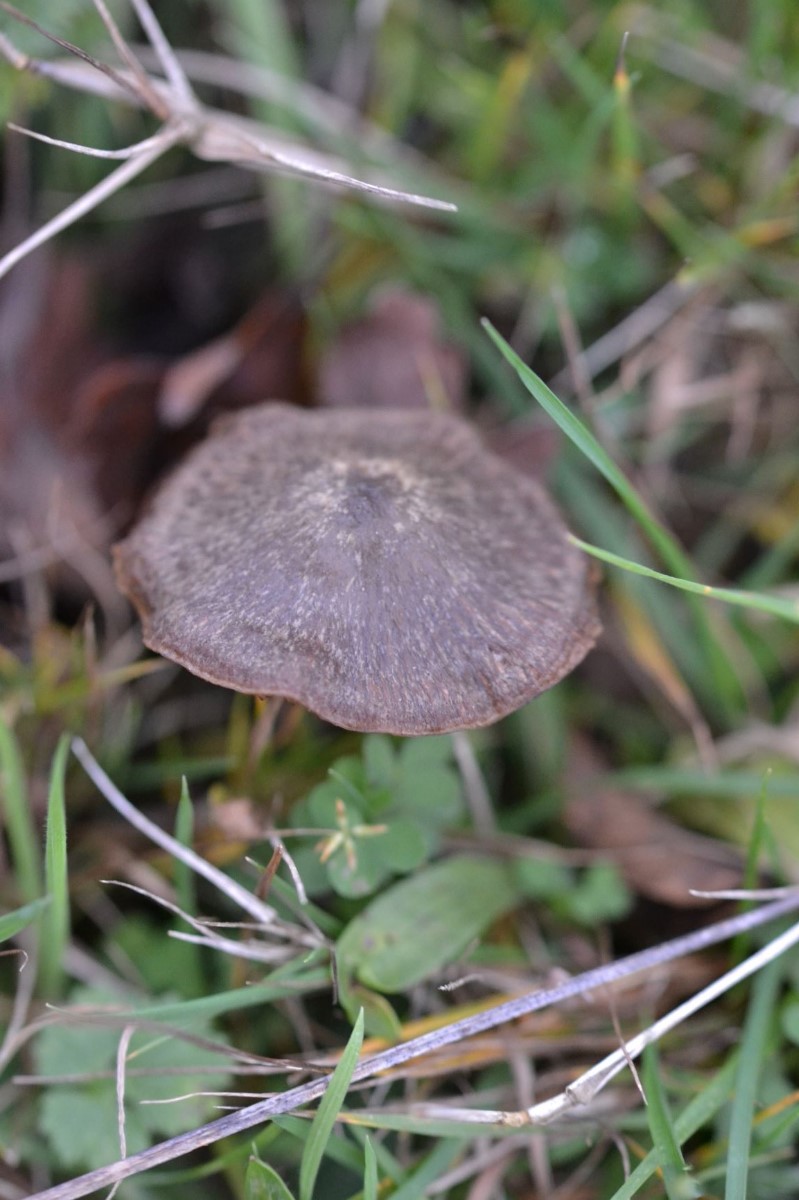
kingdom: Fungi
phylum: Basidiomycota
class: Agaricomycetes
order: Agaricales
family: Entolomataceae
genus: Entoloma
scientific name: Entoloma
